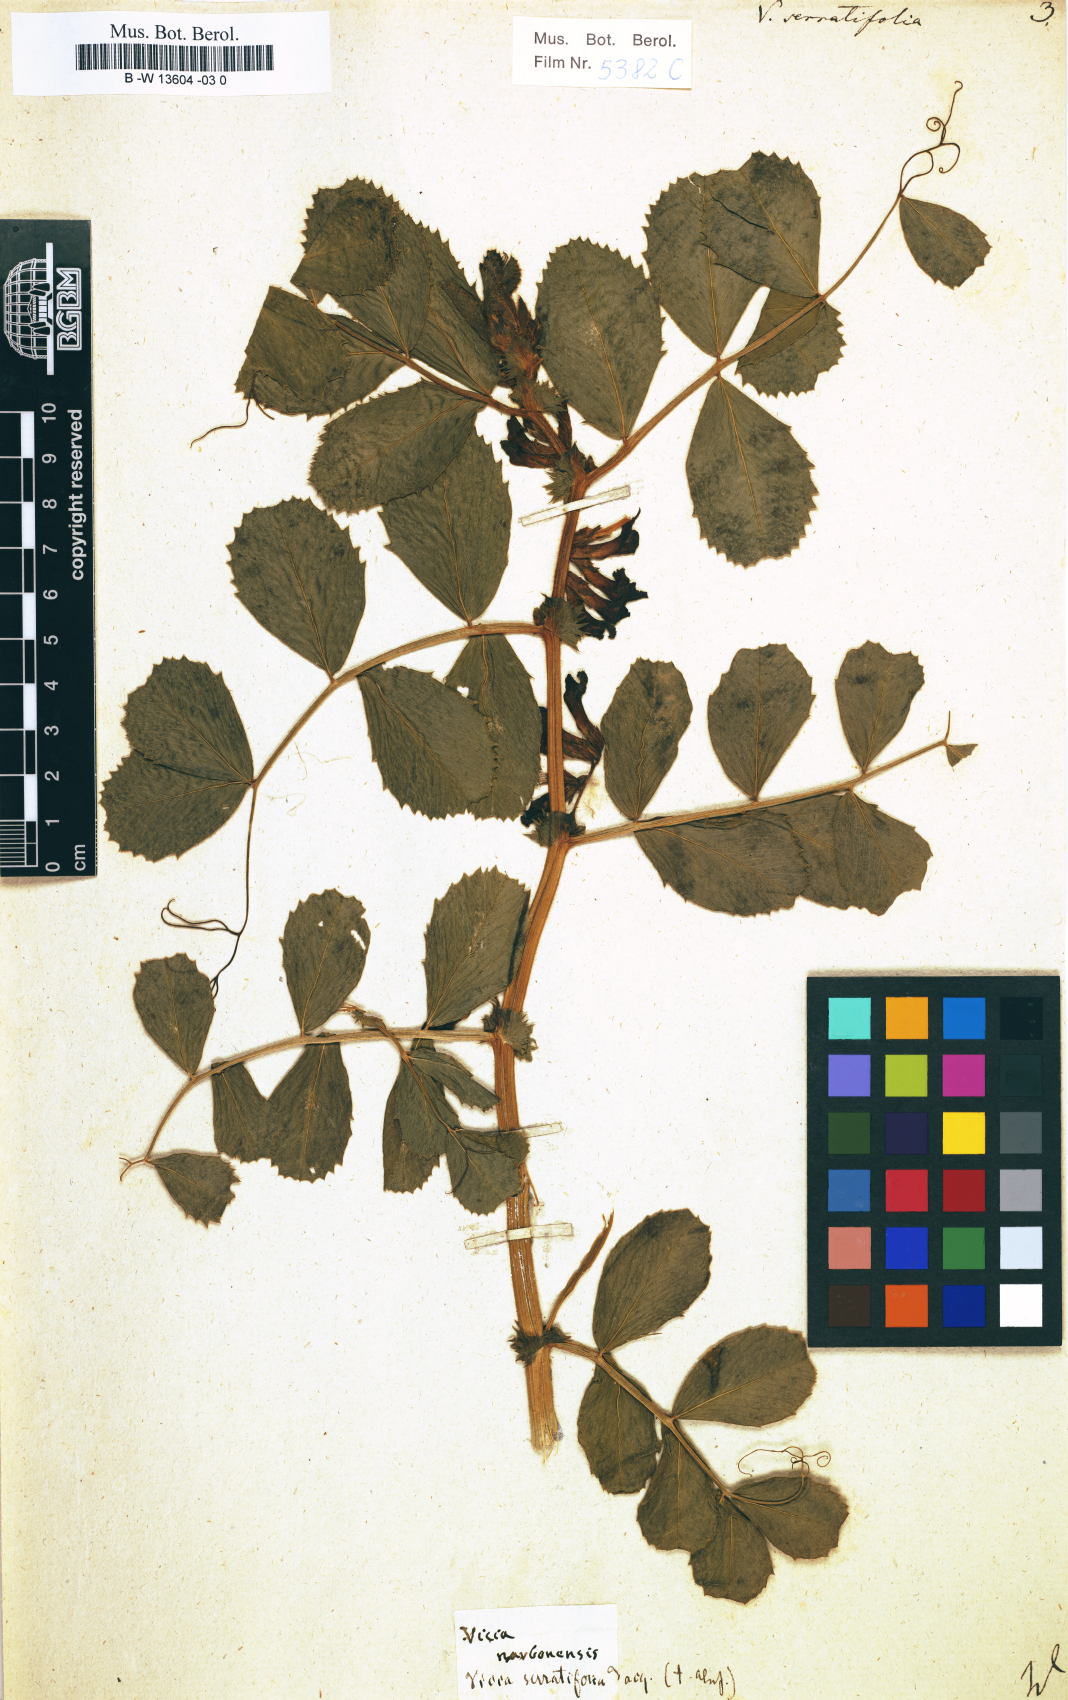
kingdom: Plantae
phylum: Tracheophyta
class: Magnoliopsida
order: Fabales
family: Fabaceae
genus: Vicia
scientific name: Vicia serratifolia
